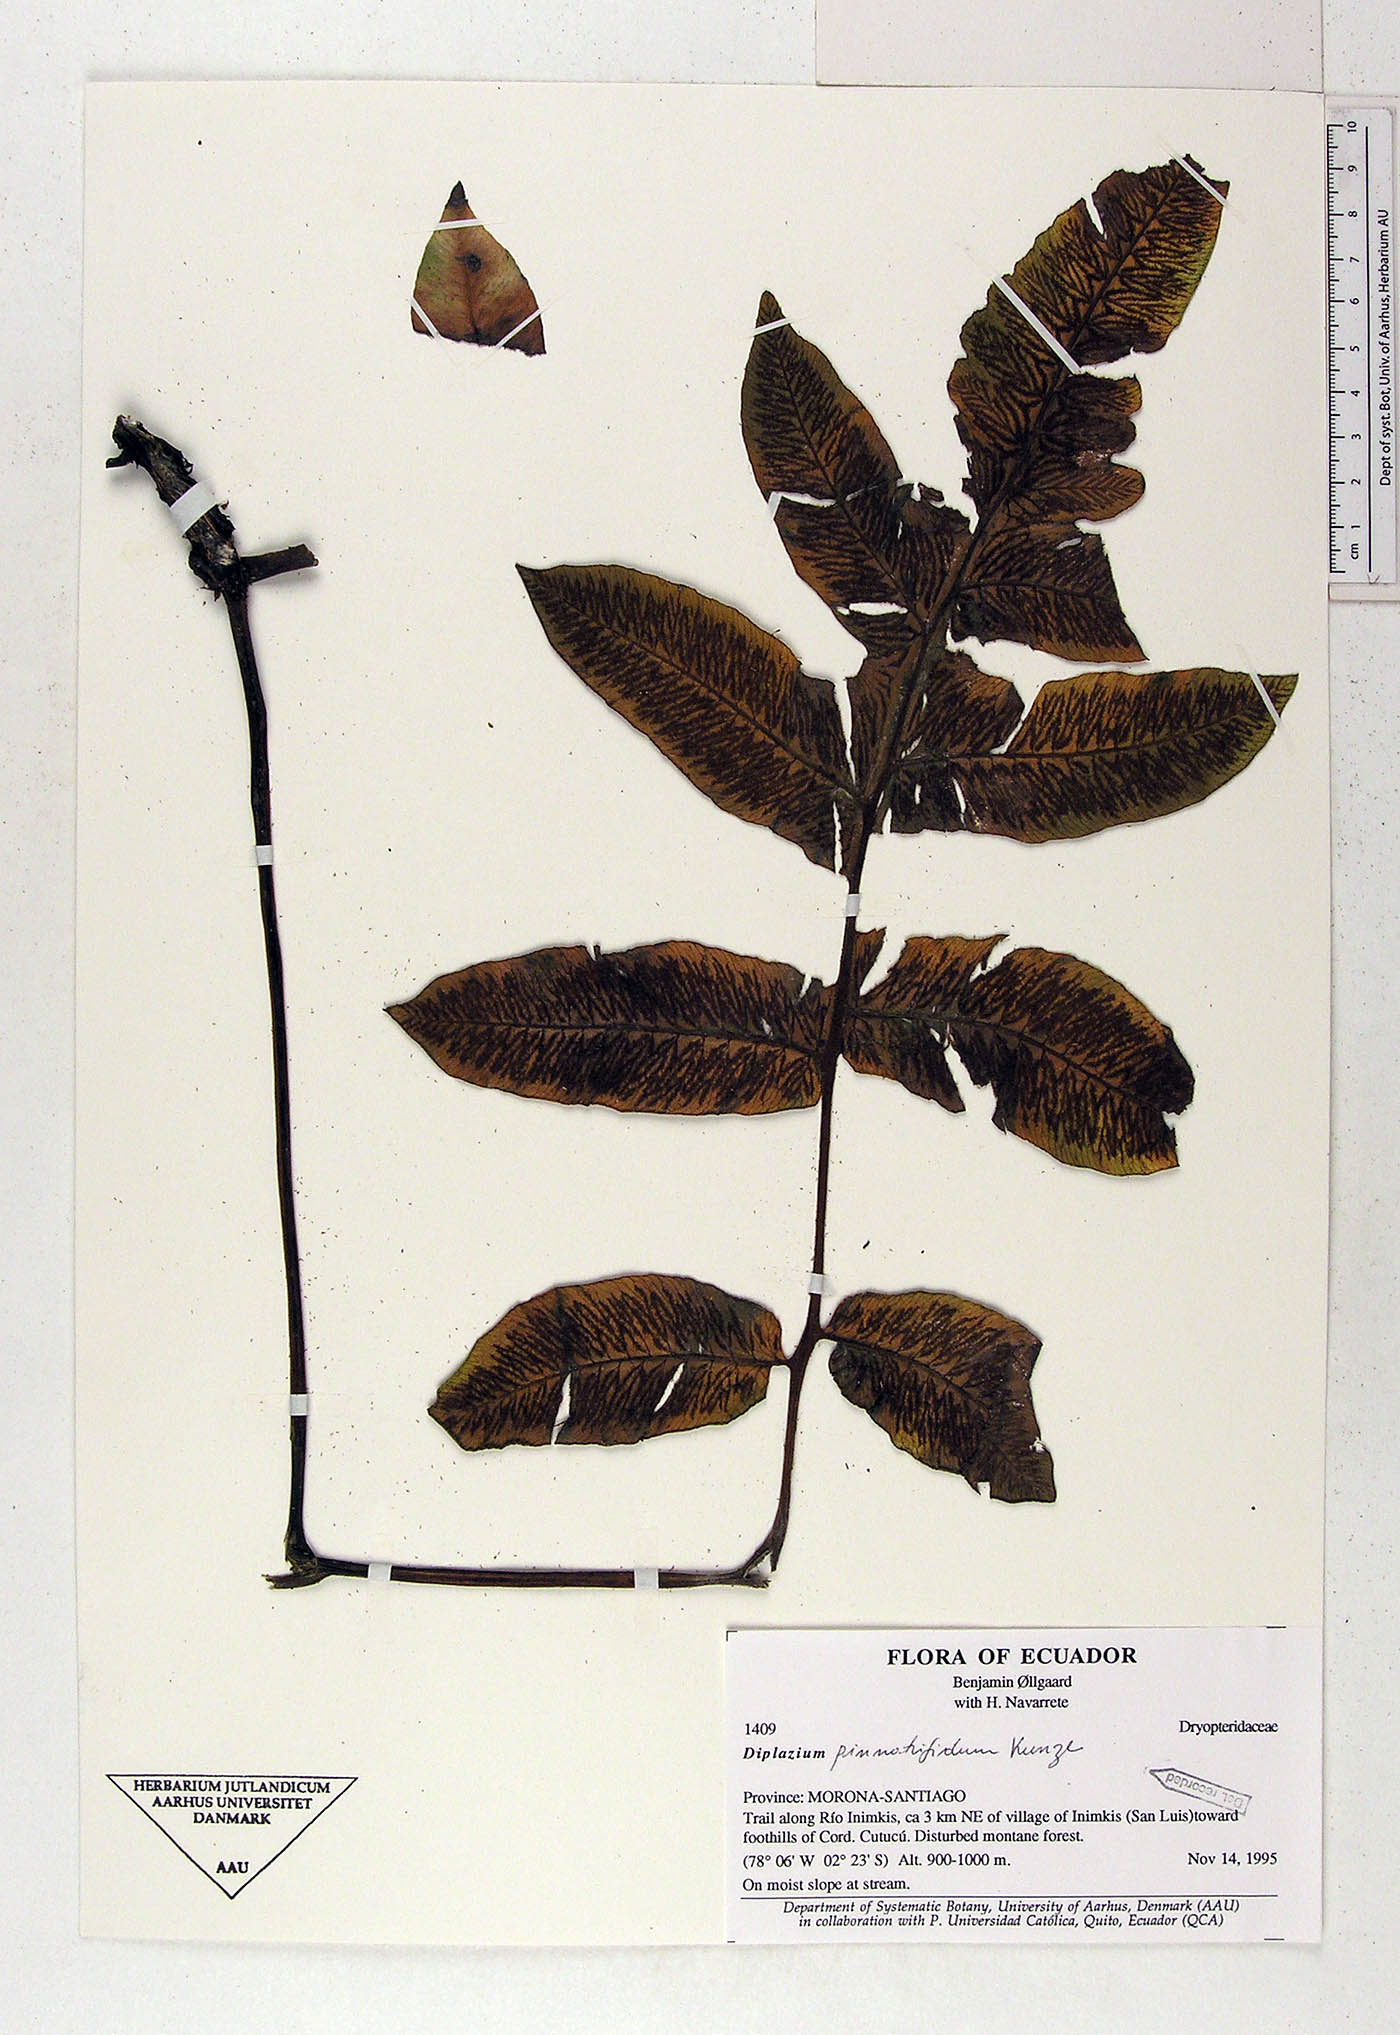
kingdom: Plantae
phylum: Tracheophyta
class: Polypodiopsida
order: Polypodiales
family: Athyriaceae
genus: Diplazium
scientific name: Diplazium pinnatifidum
